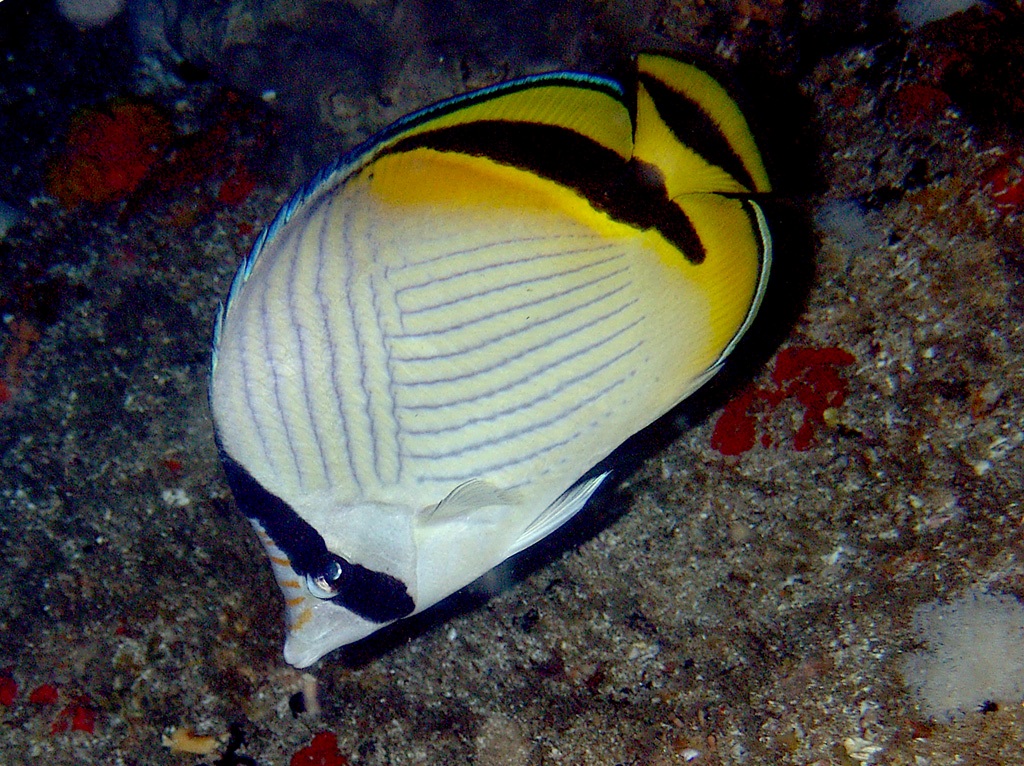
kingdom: Animalia
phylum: Chordata
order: Perciformes
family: Chaetodontidae
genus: Chaetodon
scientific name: Chaetodon vagabundus
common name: Vagabond butterflyfish
